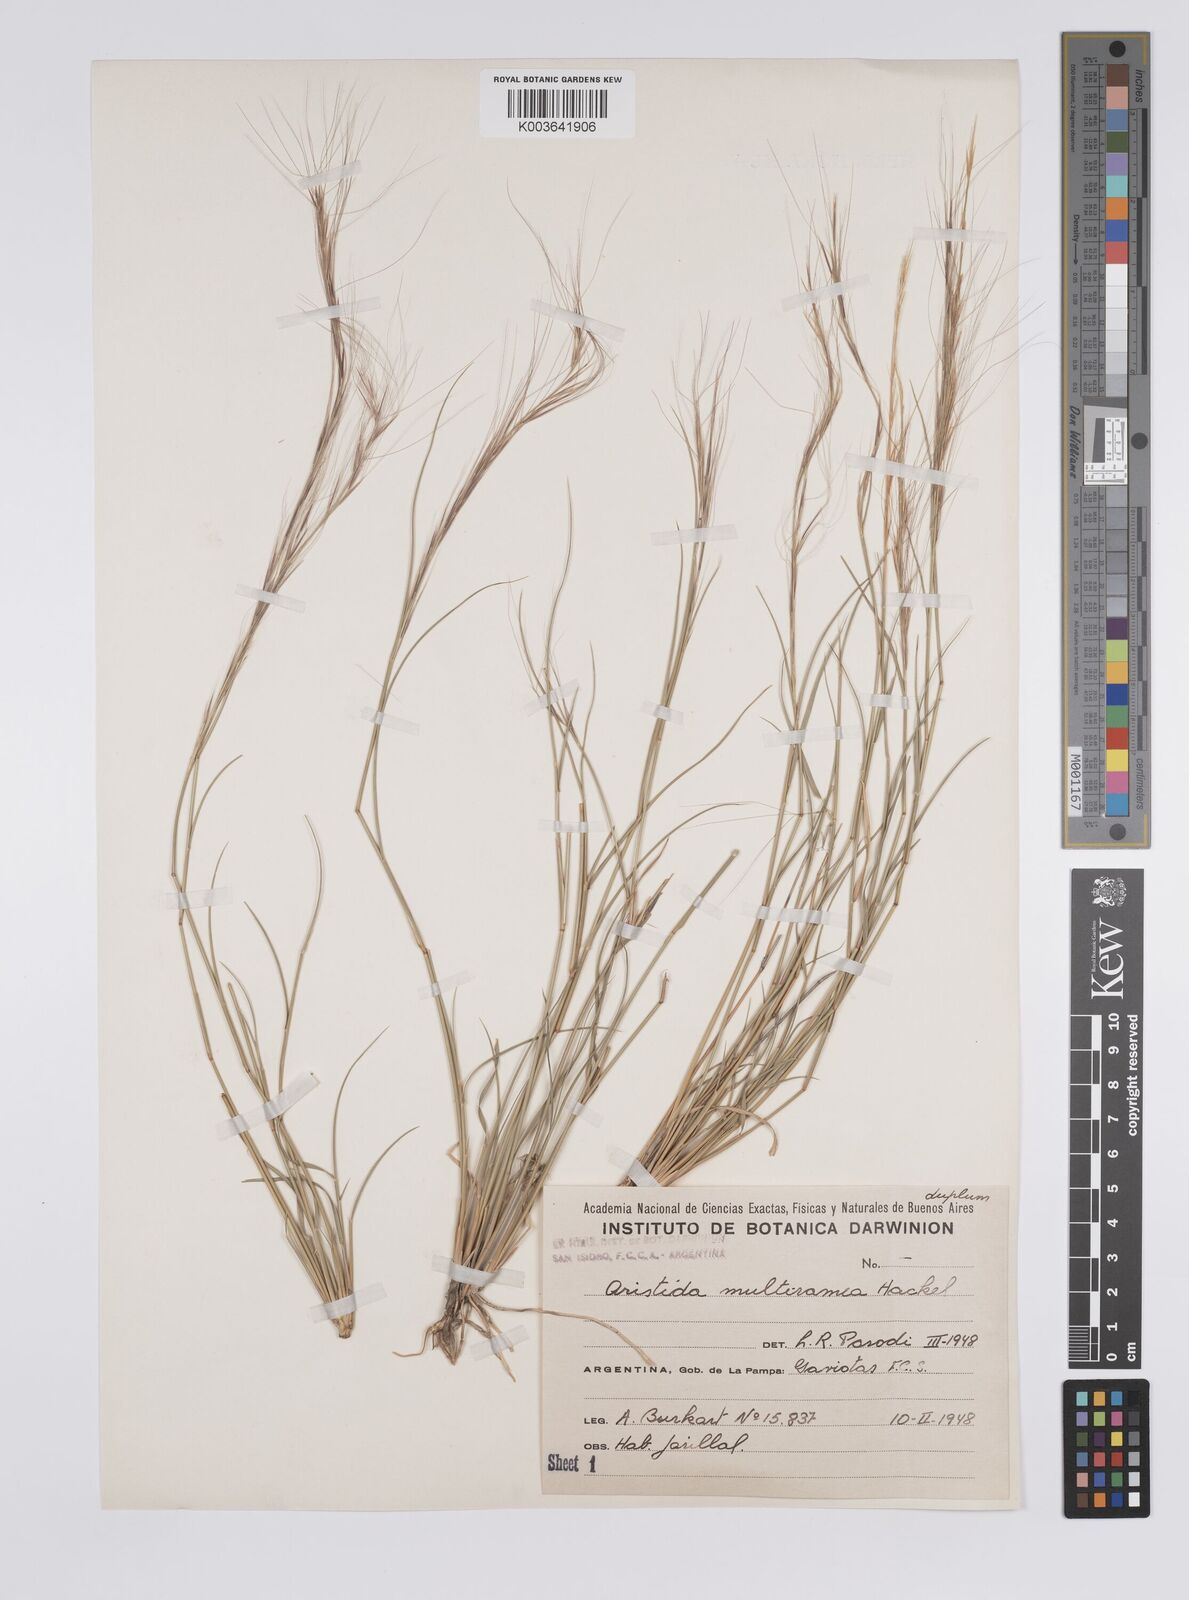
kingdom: Plantae
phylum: Tracheophyta
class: Liliopsida
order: Poales
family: Poaceae
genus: Aristida
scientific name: Aristida multiramea
